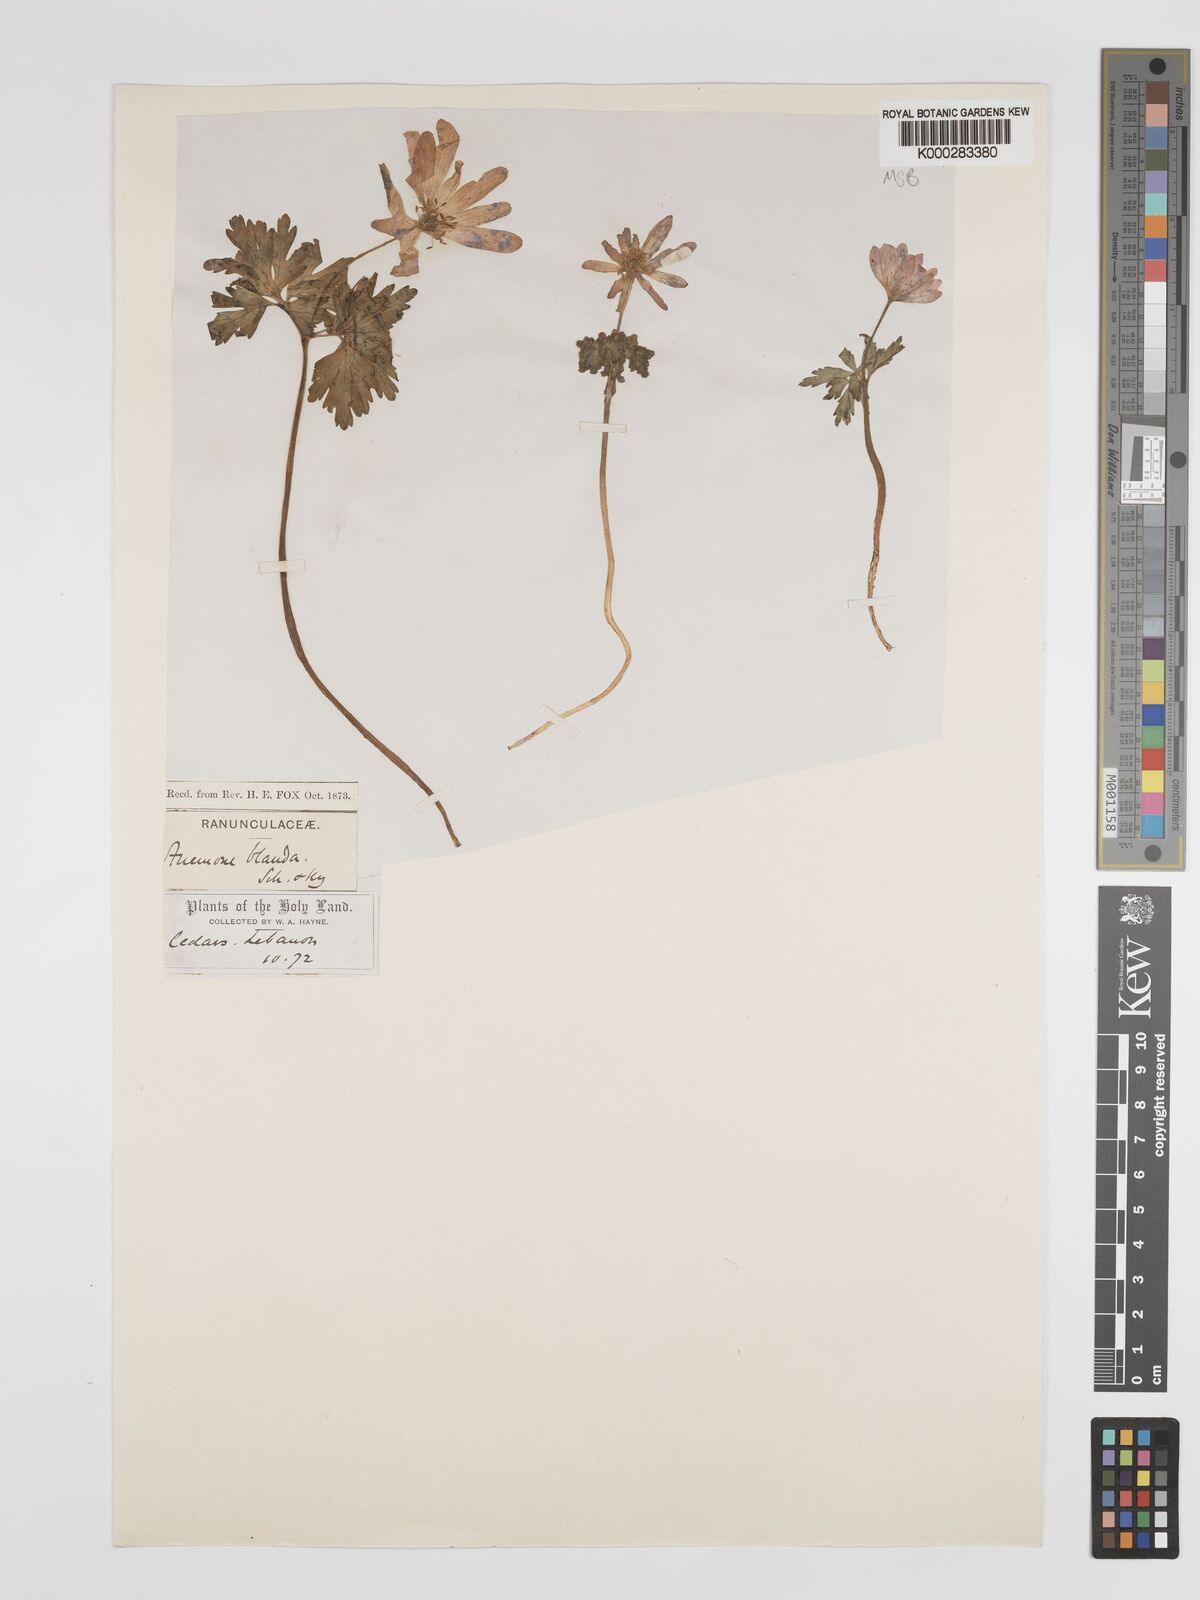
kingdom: Plantae
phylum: Tracheophyta
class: Magnoliopsida
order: Ranunculales
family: Ranunculaceae
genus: Anemone
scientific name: Anemone blanda
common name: Balkan anemone
